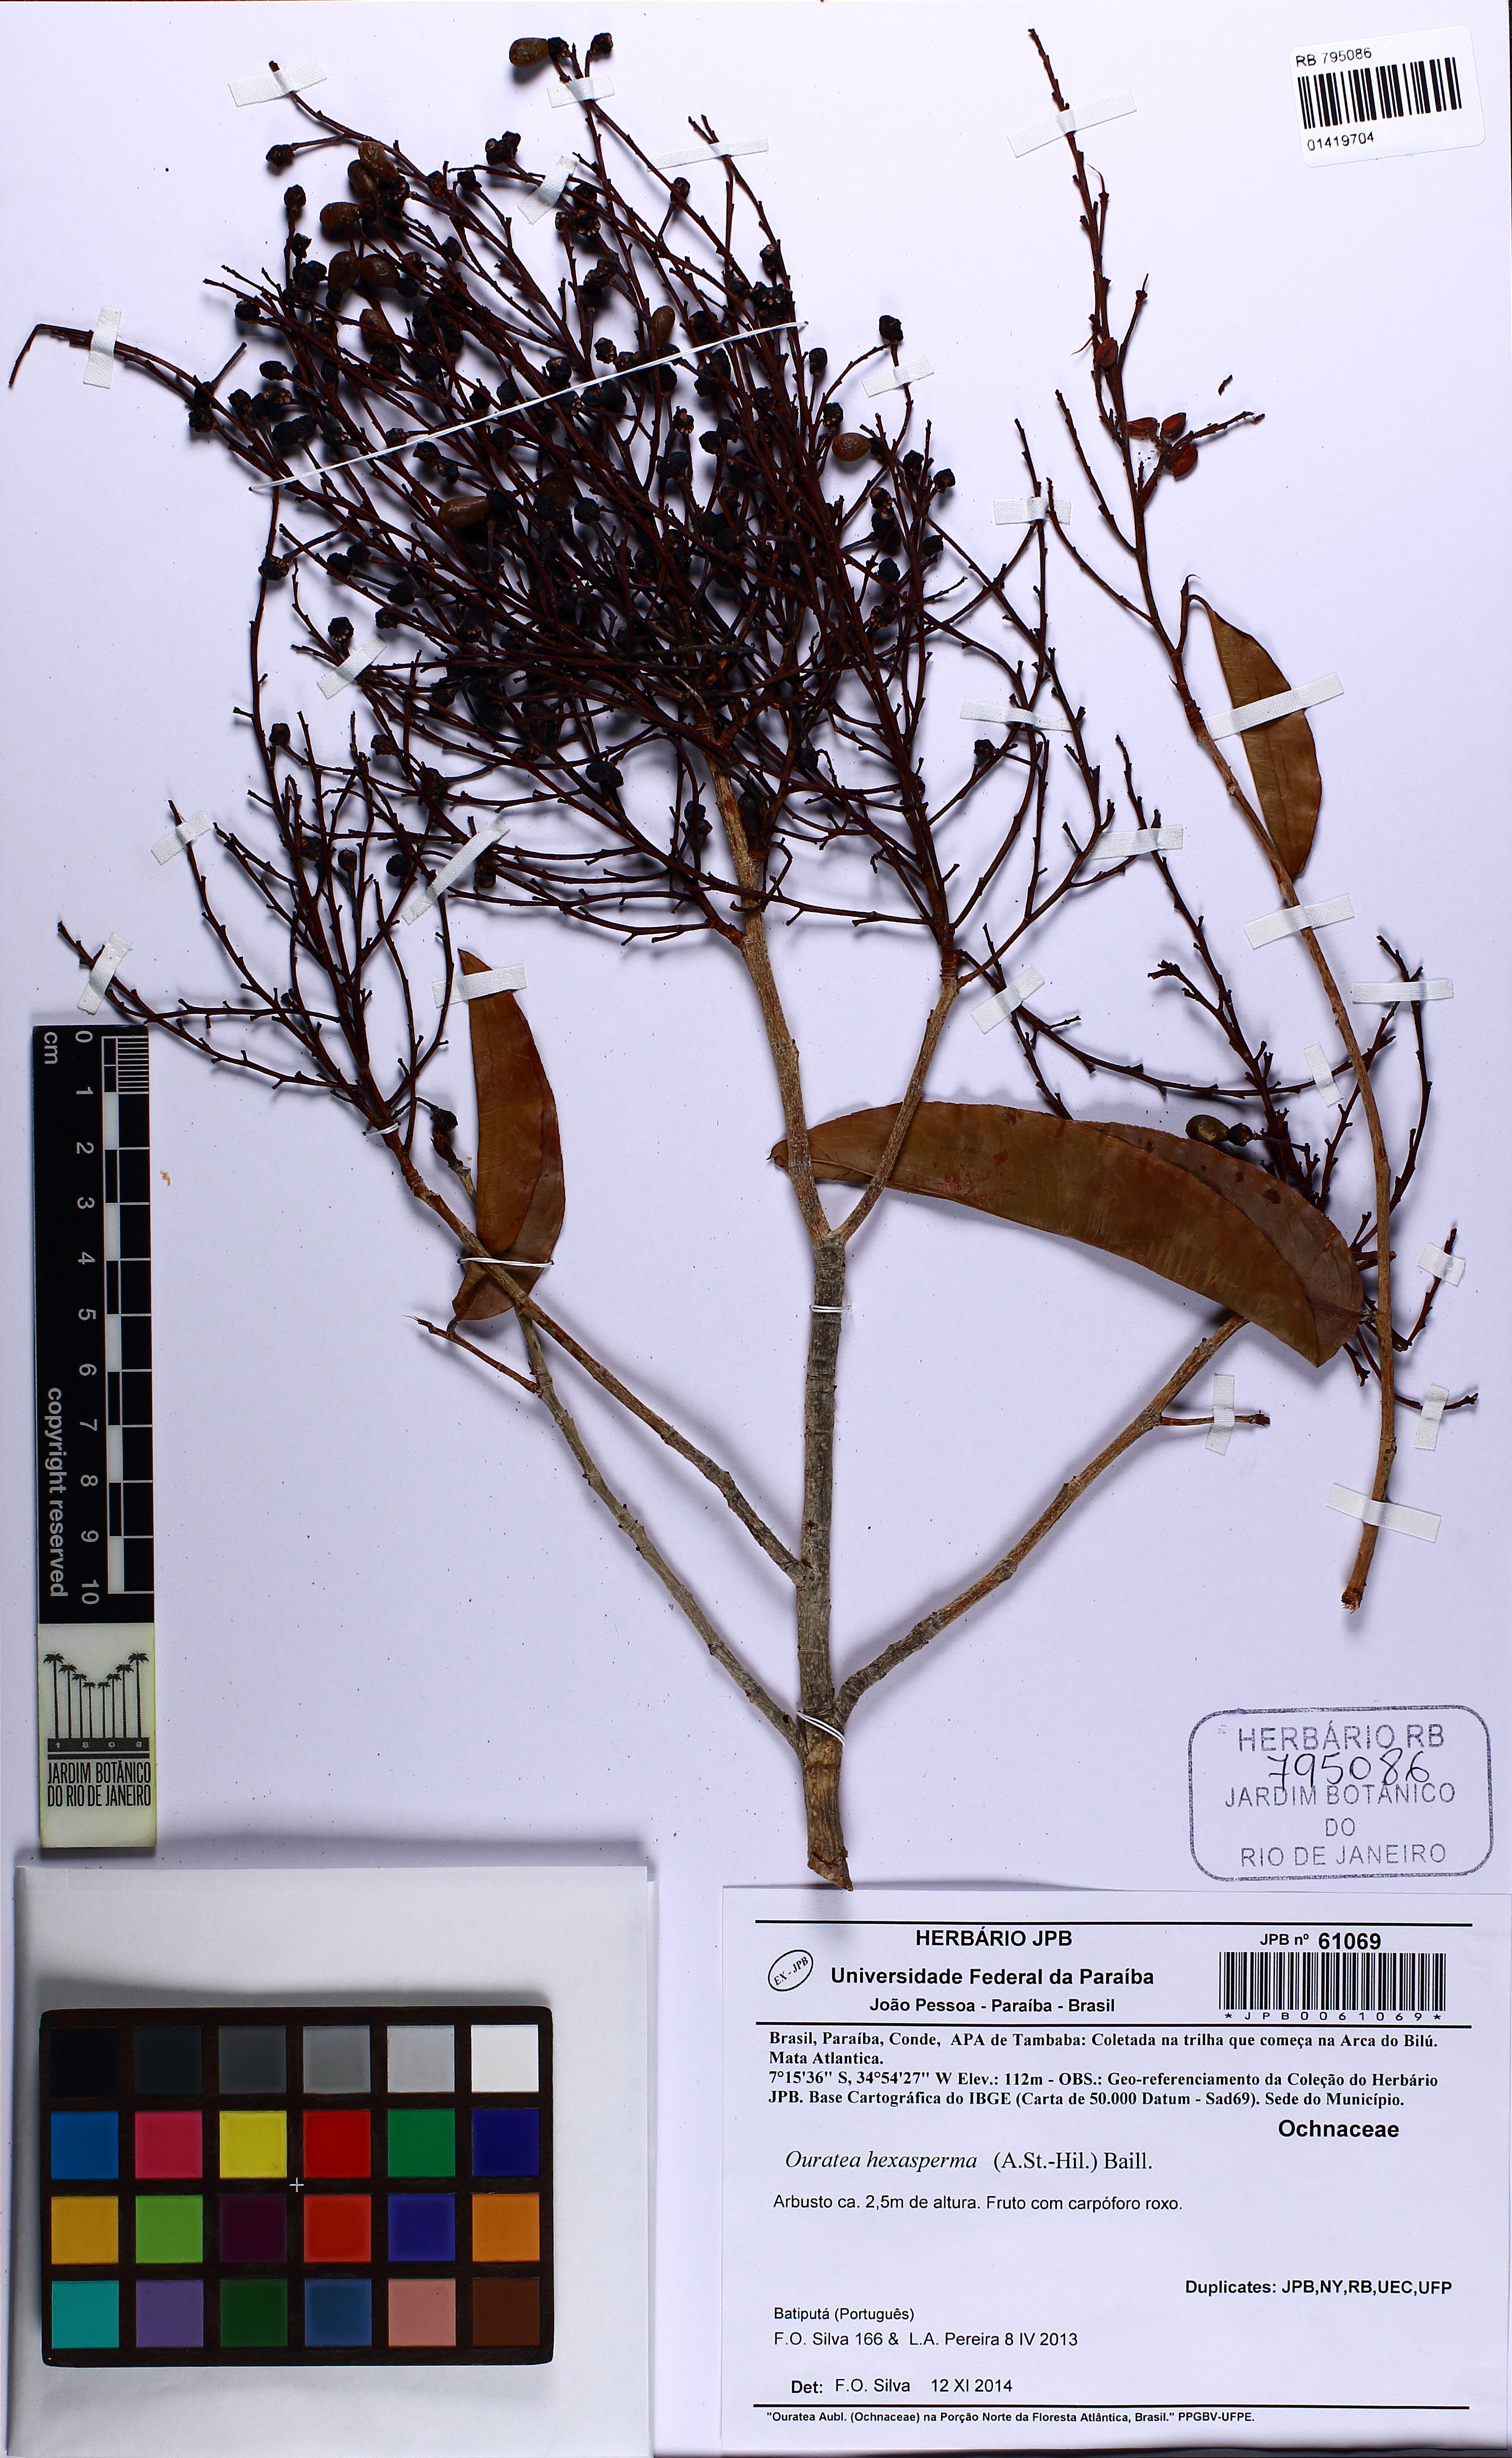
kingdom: Plantae
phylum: Tracheophyta
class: Magnoliopsida
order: Malpighiales
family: Ochnaceae
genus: Ouratea
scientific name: Ouratea hexasperma
